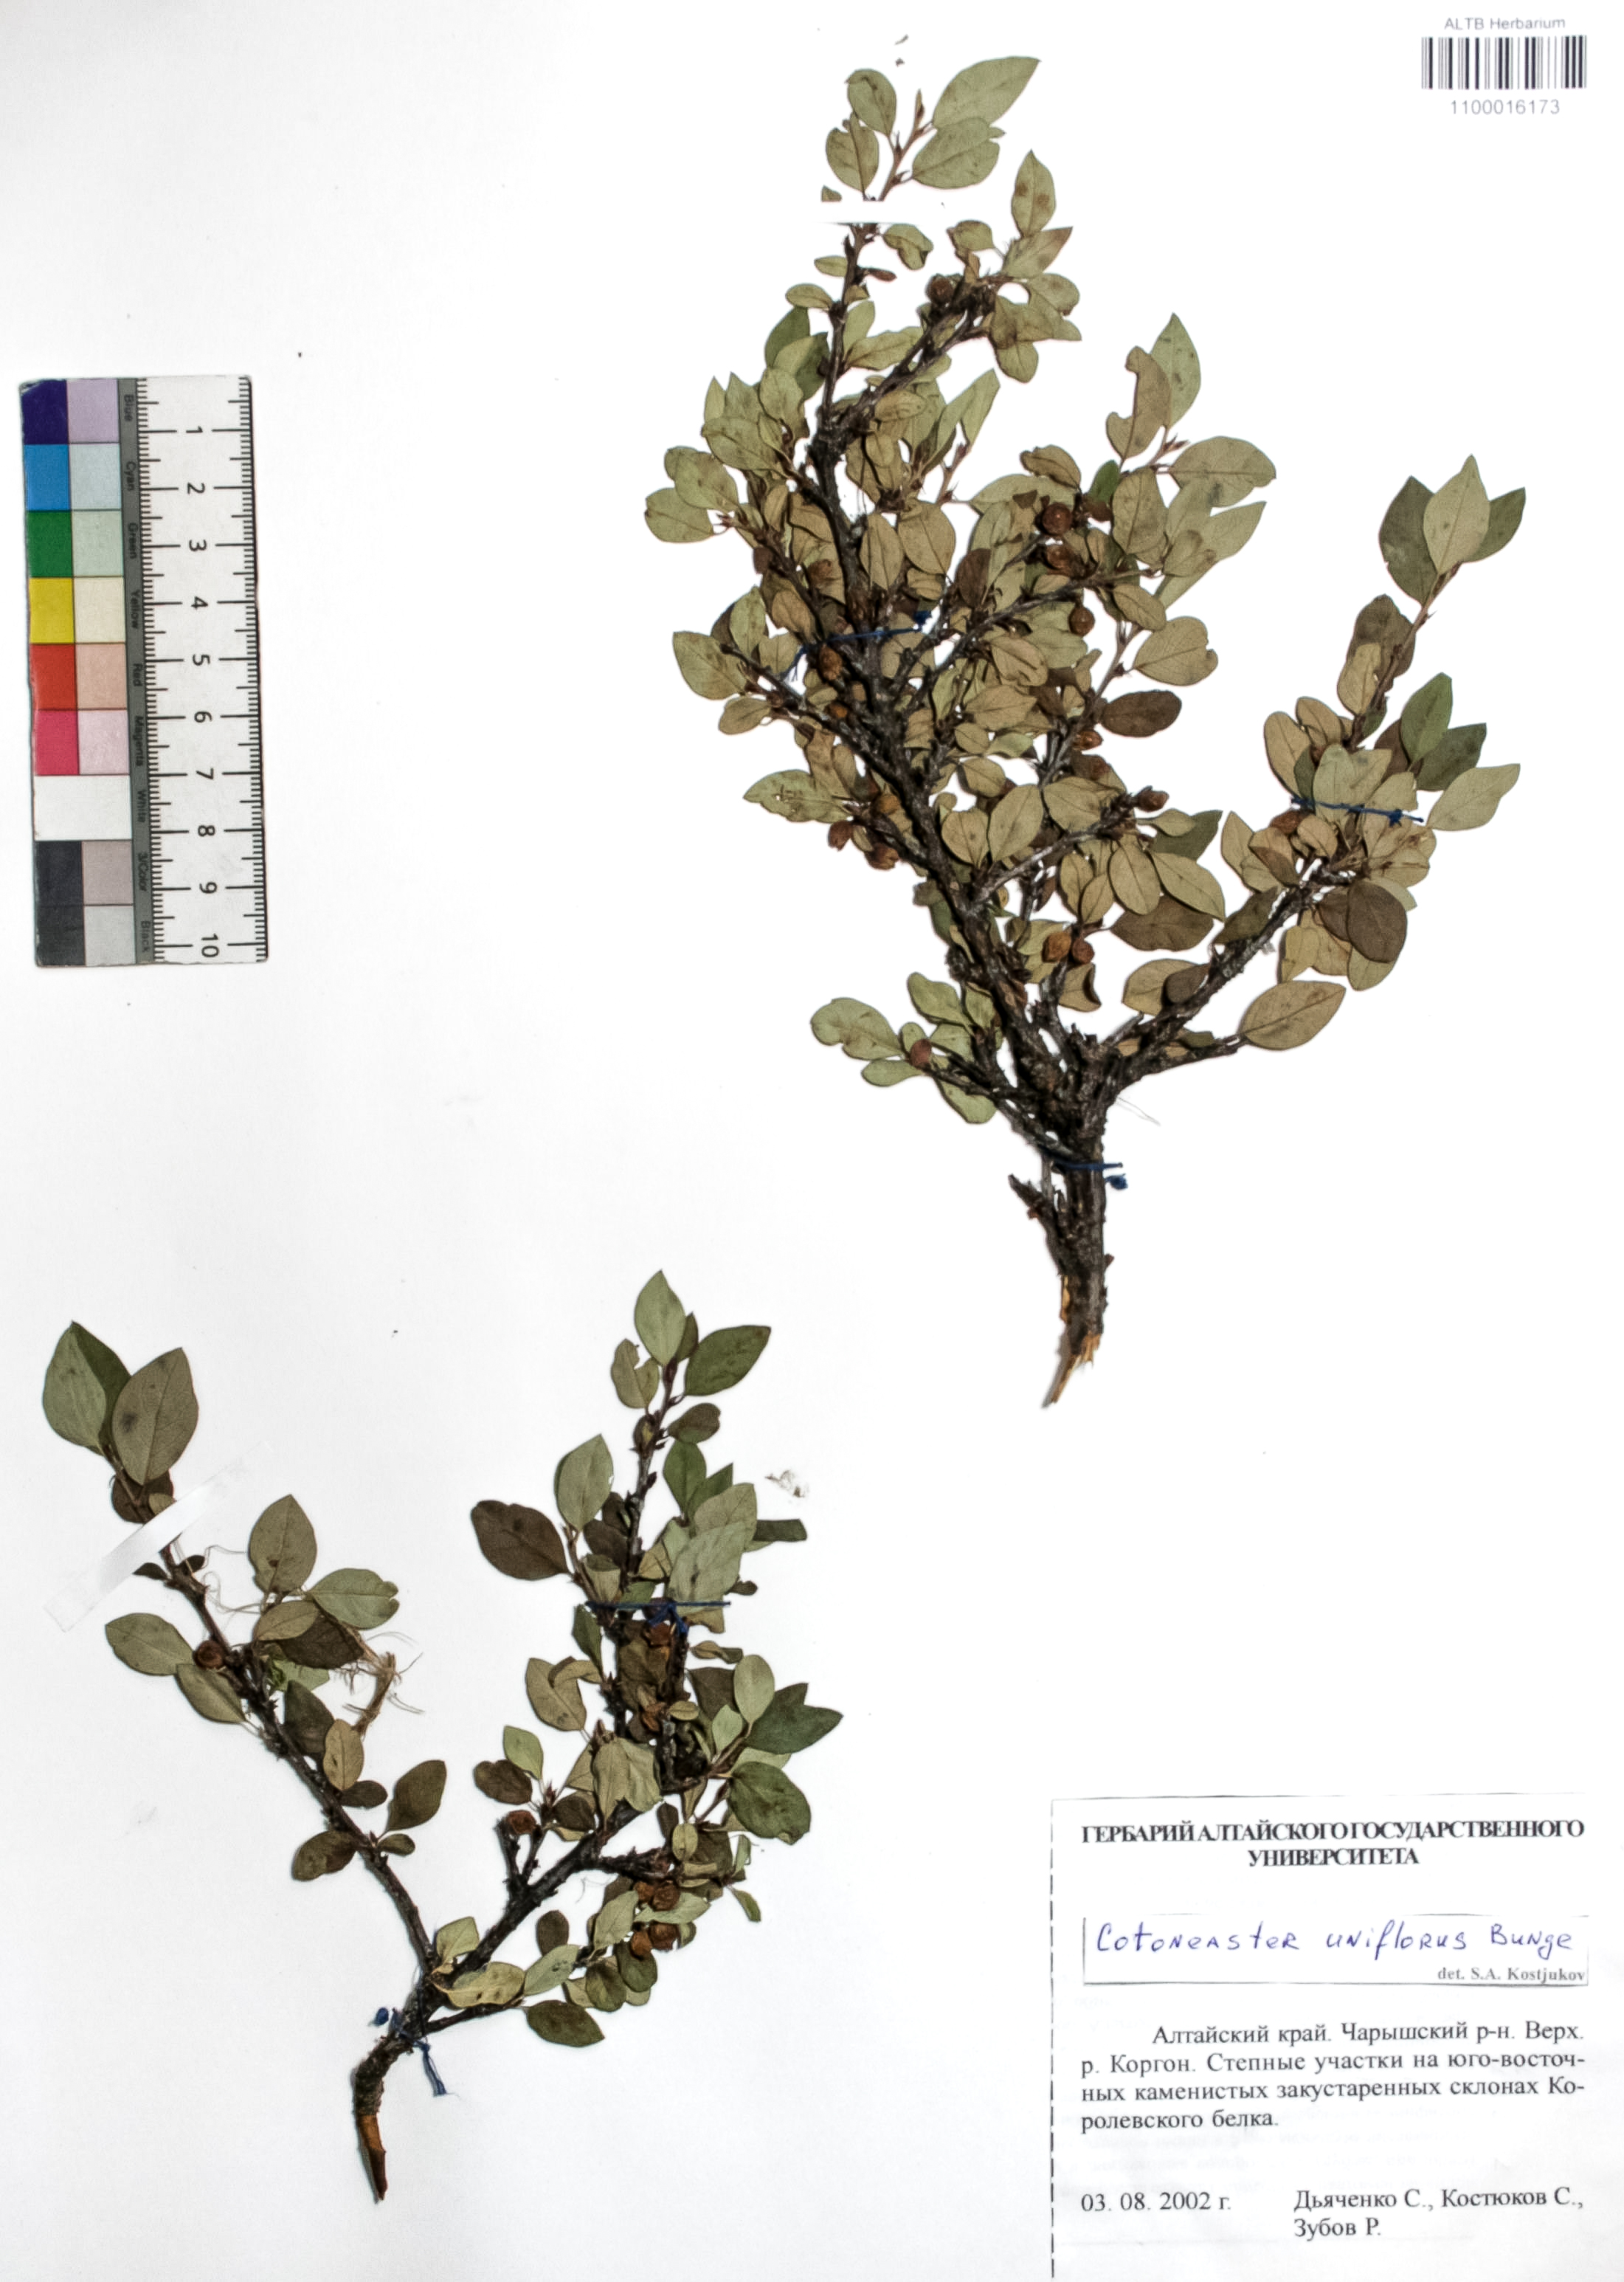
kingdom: Plantae
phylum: Tracheophyta
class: Magnoliopsida
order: Rosales
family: Rosaceae
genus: Cotoneaster
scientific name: Cotoneaster uniflorus
